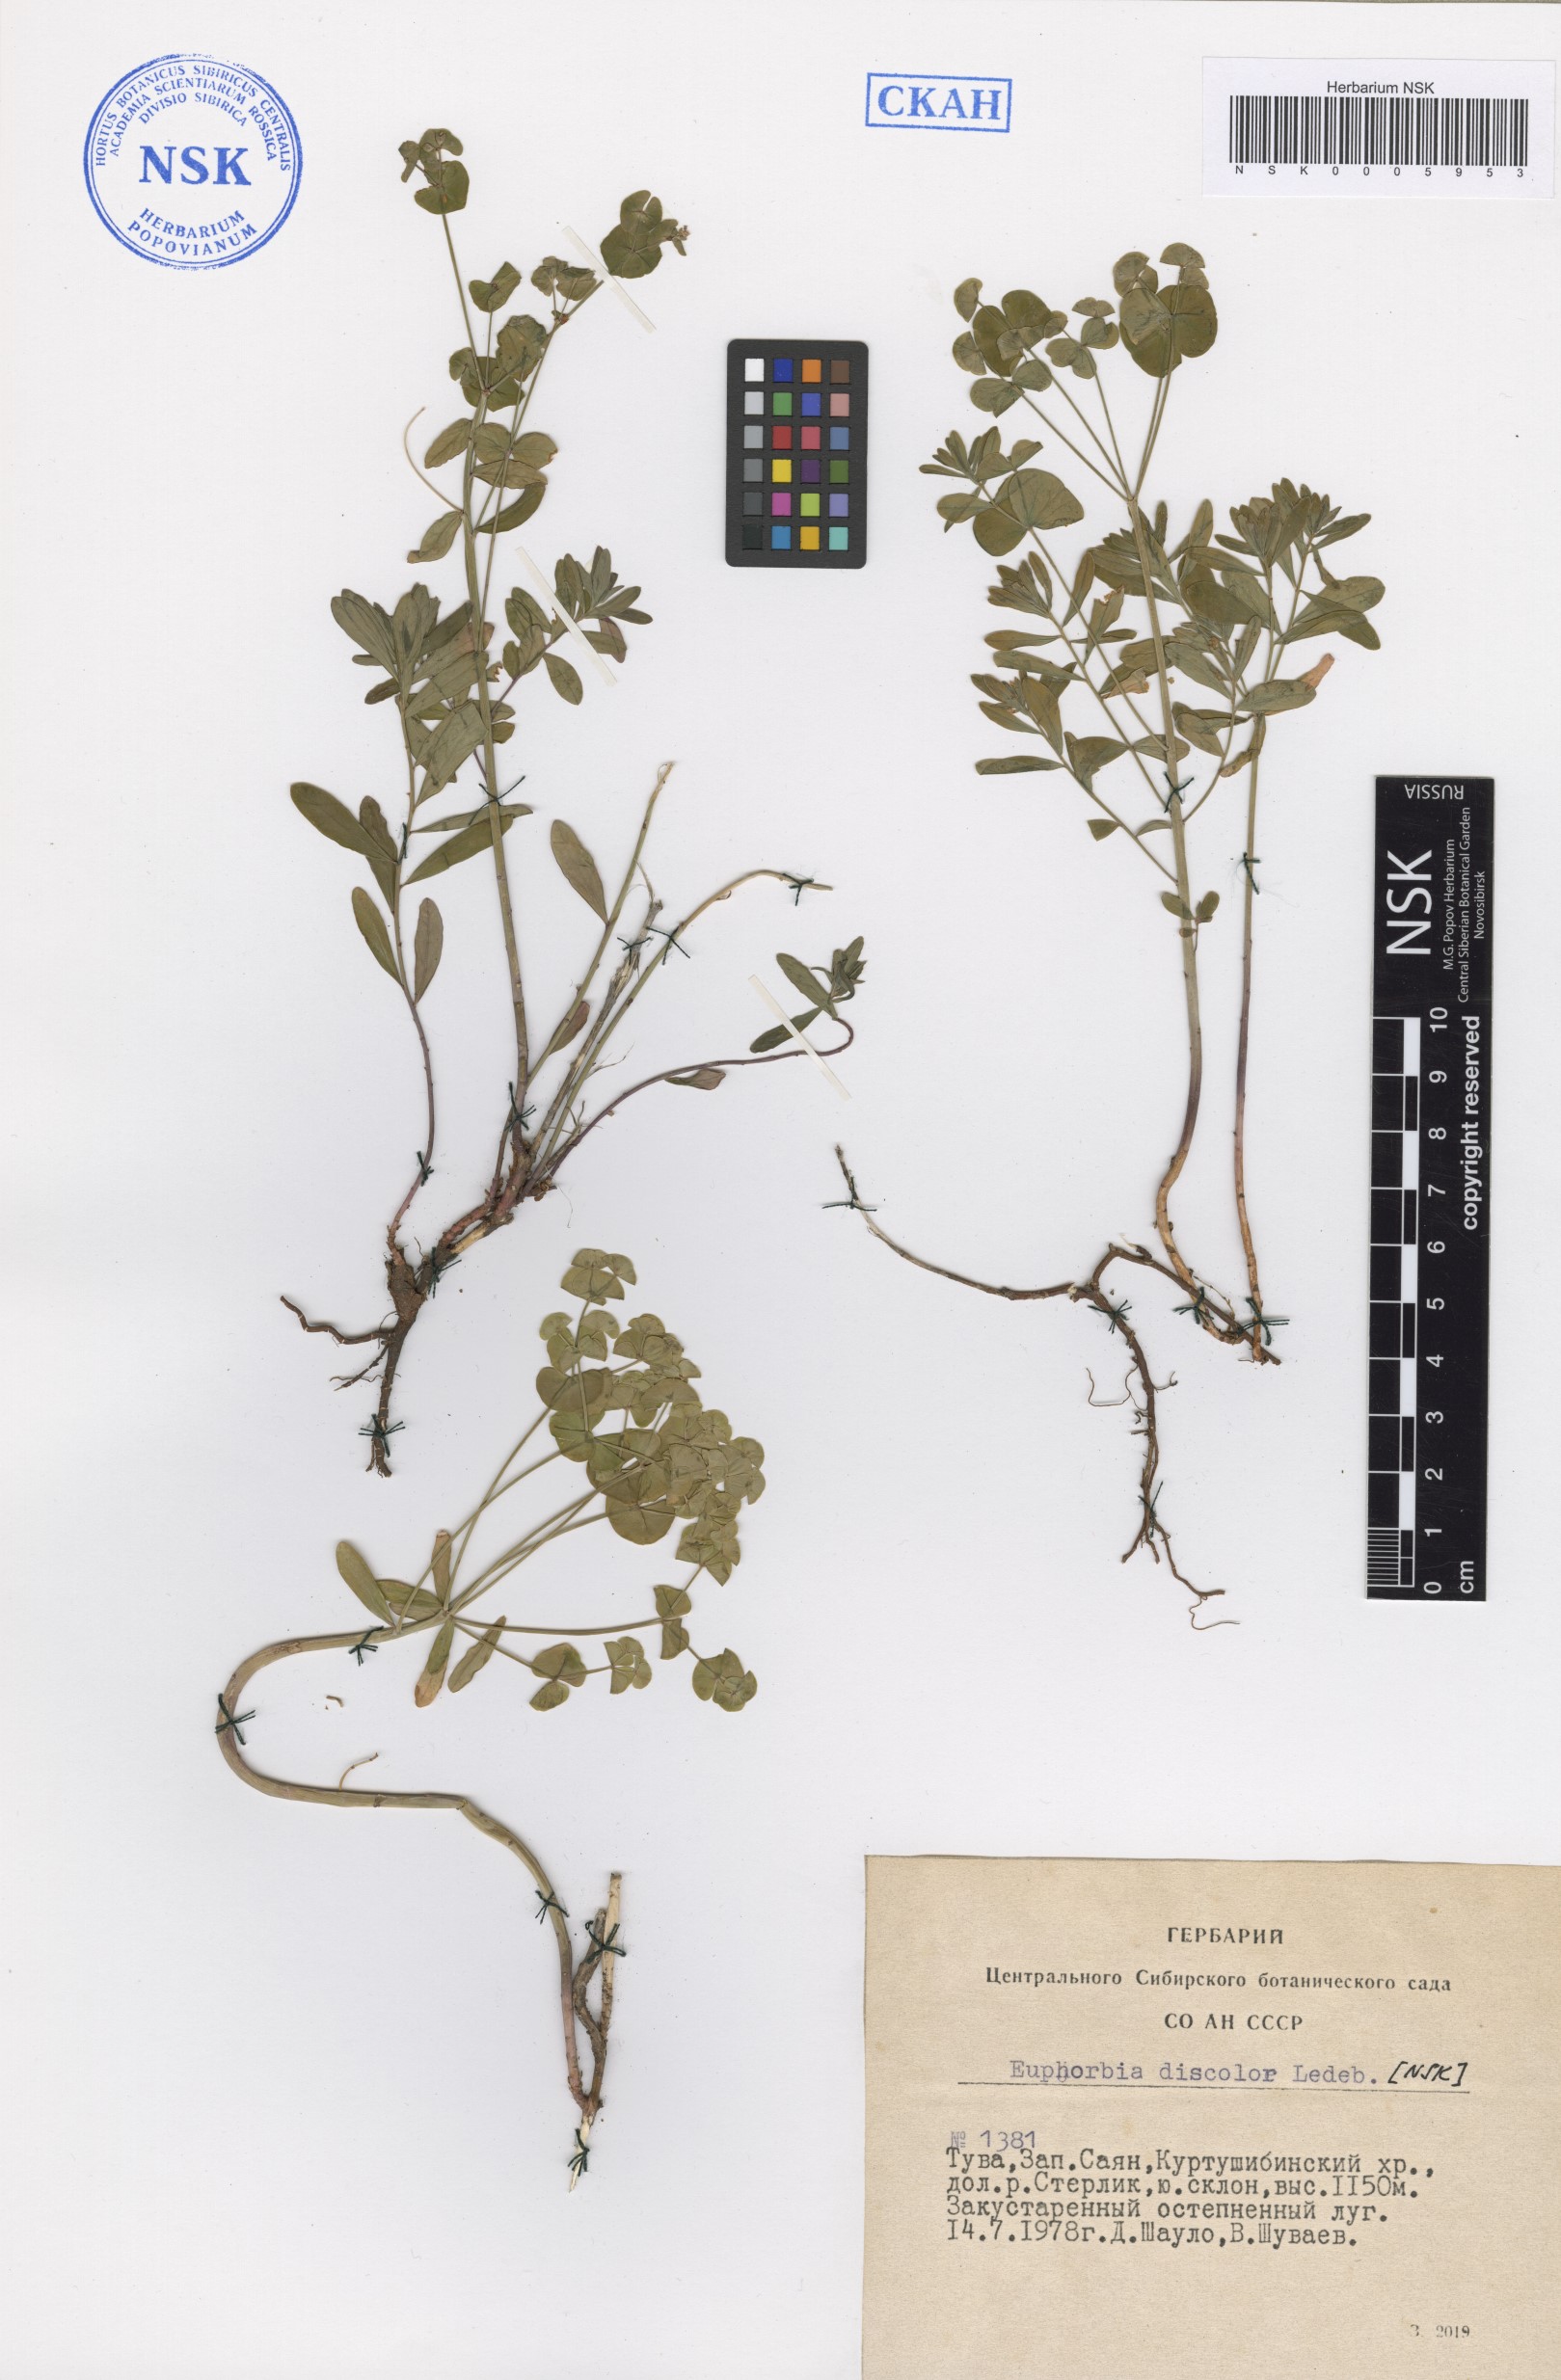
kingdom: Plantae
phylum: Tracheophyta
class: Magnoliopsida
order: Malpighiales
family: Euphorbiaceae
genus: Euphorbia
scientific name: Euphorbia esula
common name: Leafy spurge
